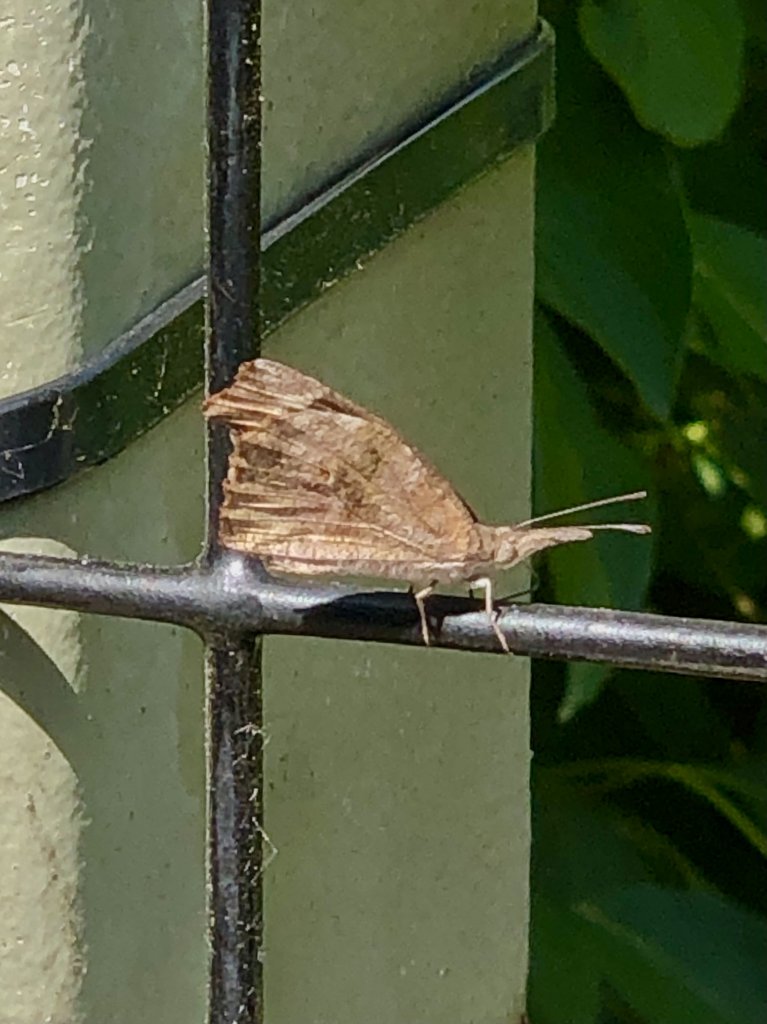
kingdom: Animalia
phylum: Arthropoda
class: Insecta
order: Lepidoptera
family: Nymphalidae
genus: Libytheana
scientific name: Libytheana carinenta
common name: American Snout
